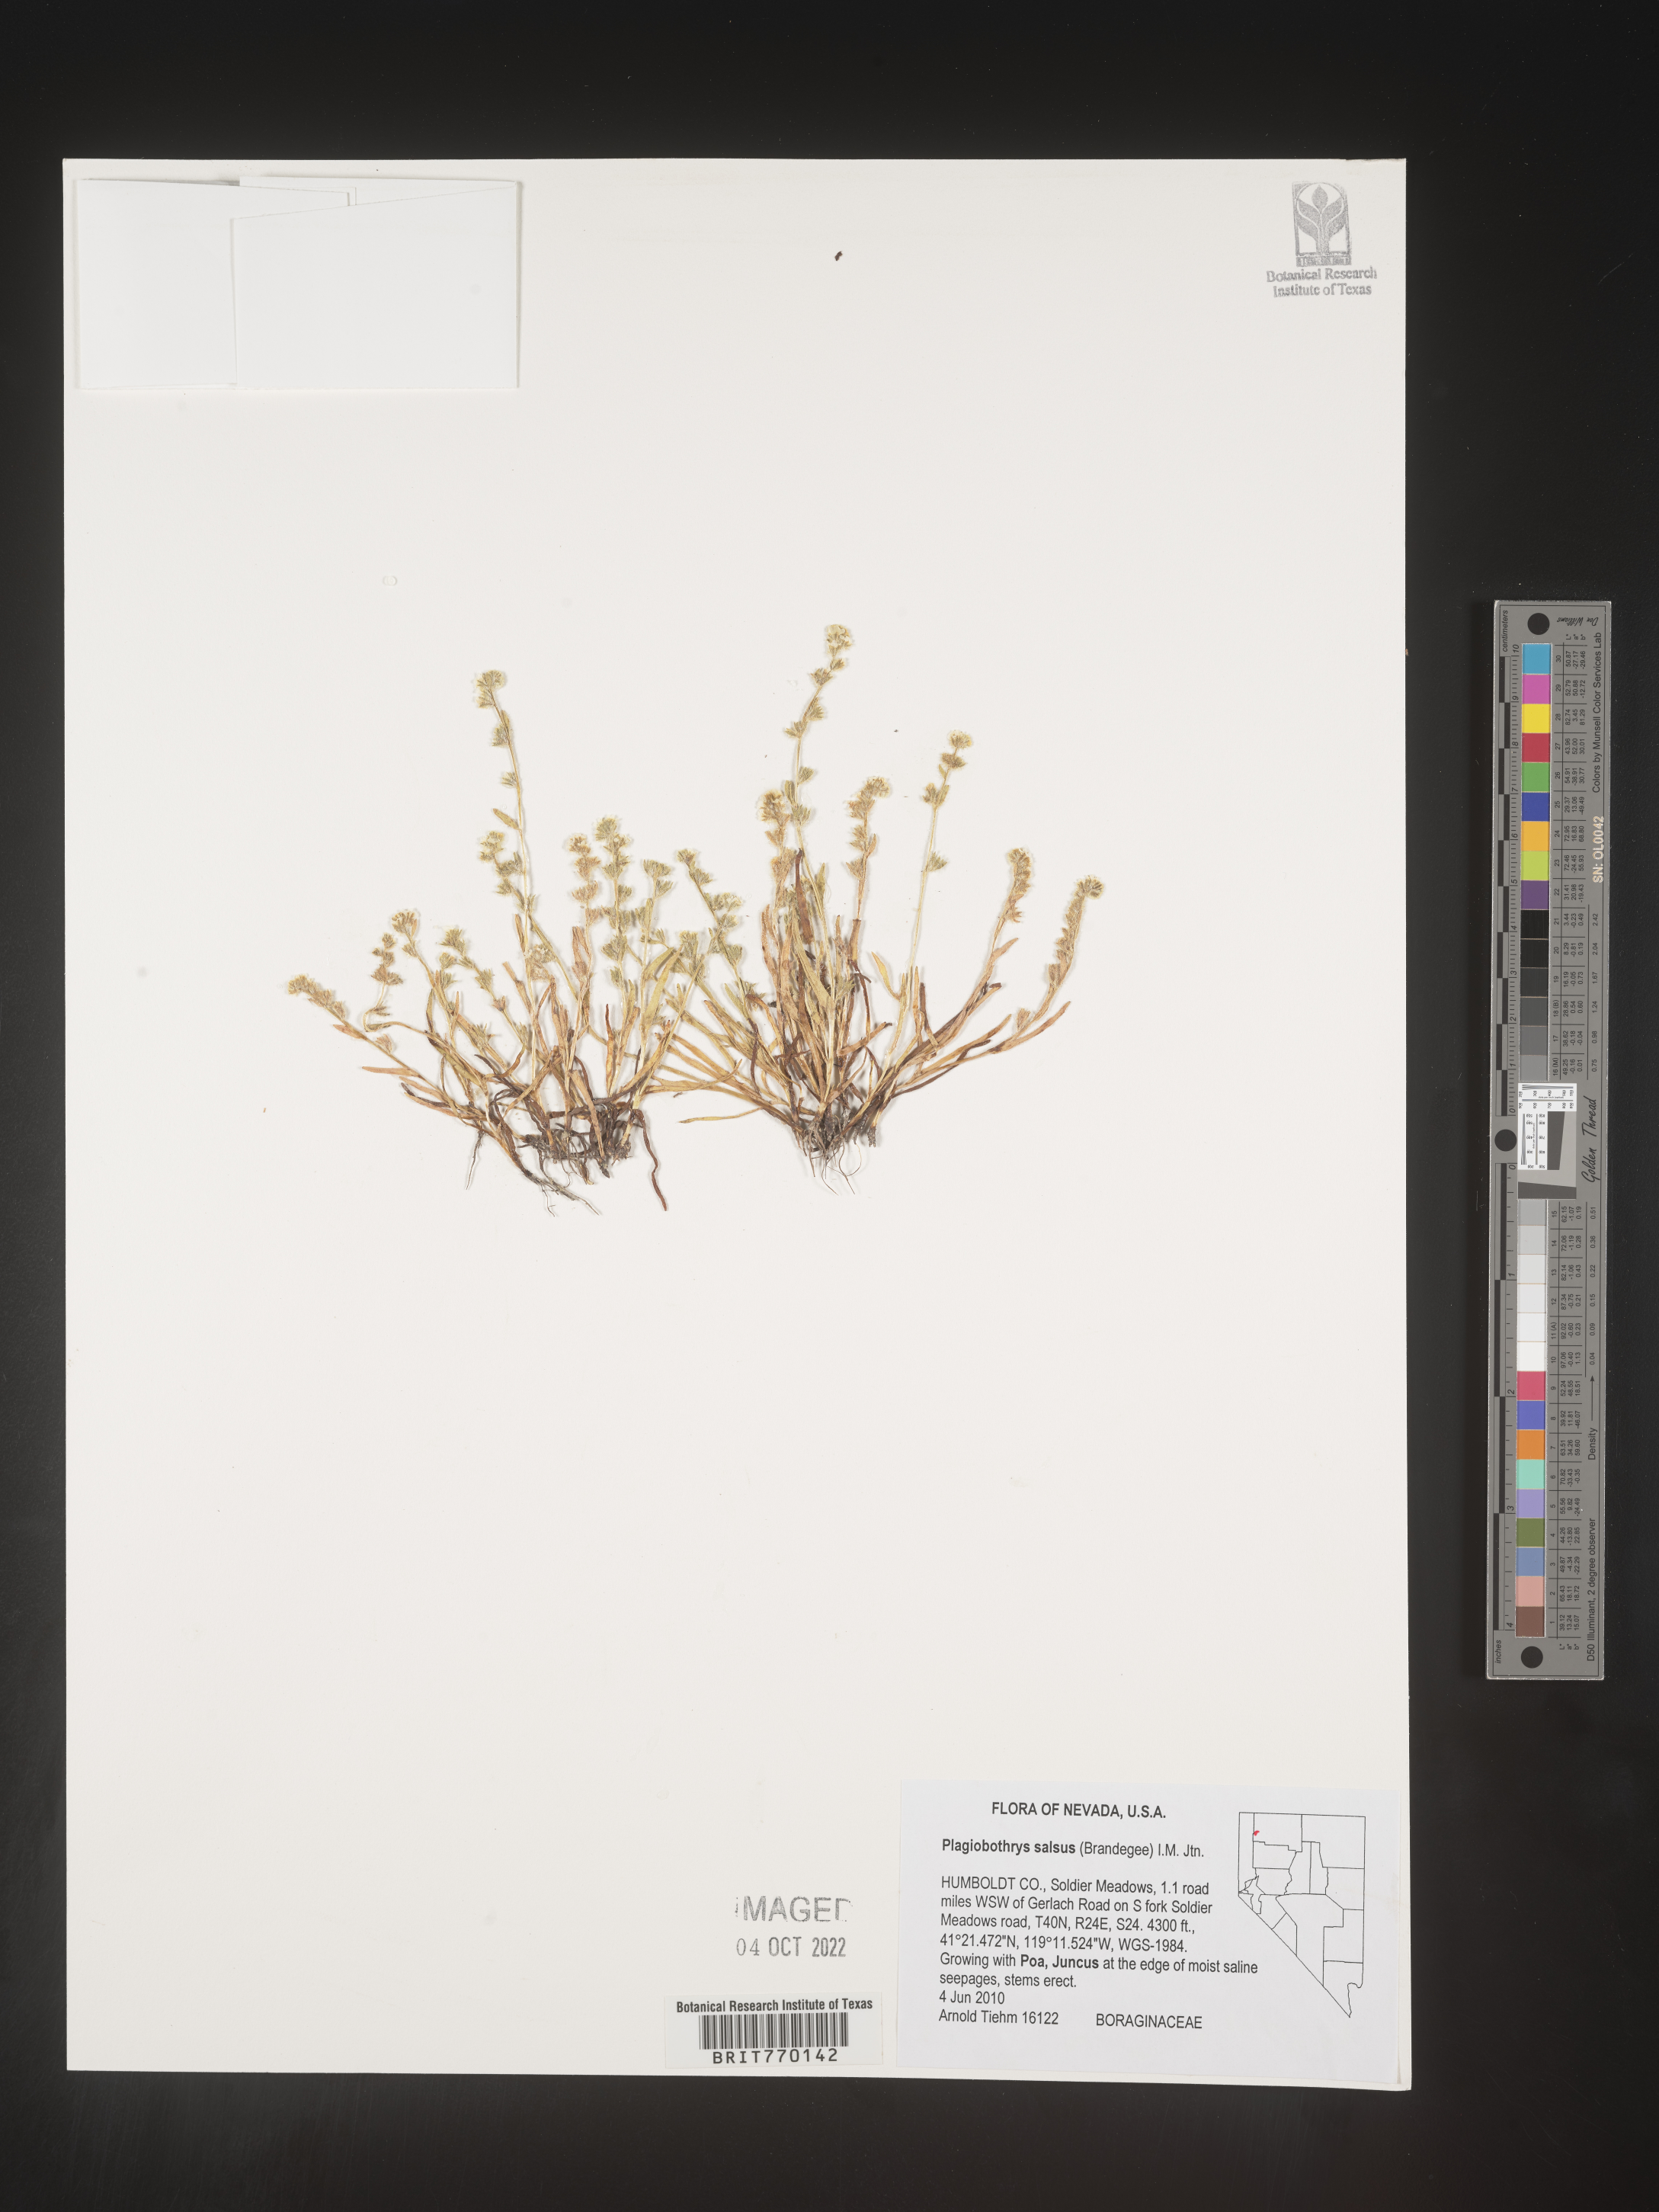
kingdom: Plantae
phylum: Tracheophyta
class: Magnoliopsida
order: Boraginales
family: Boraginaceae
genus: Plagiobothrys
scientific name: Plagiobothrys
